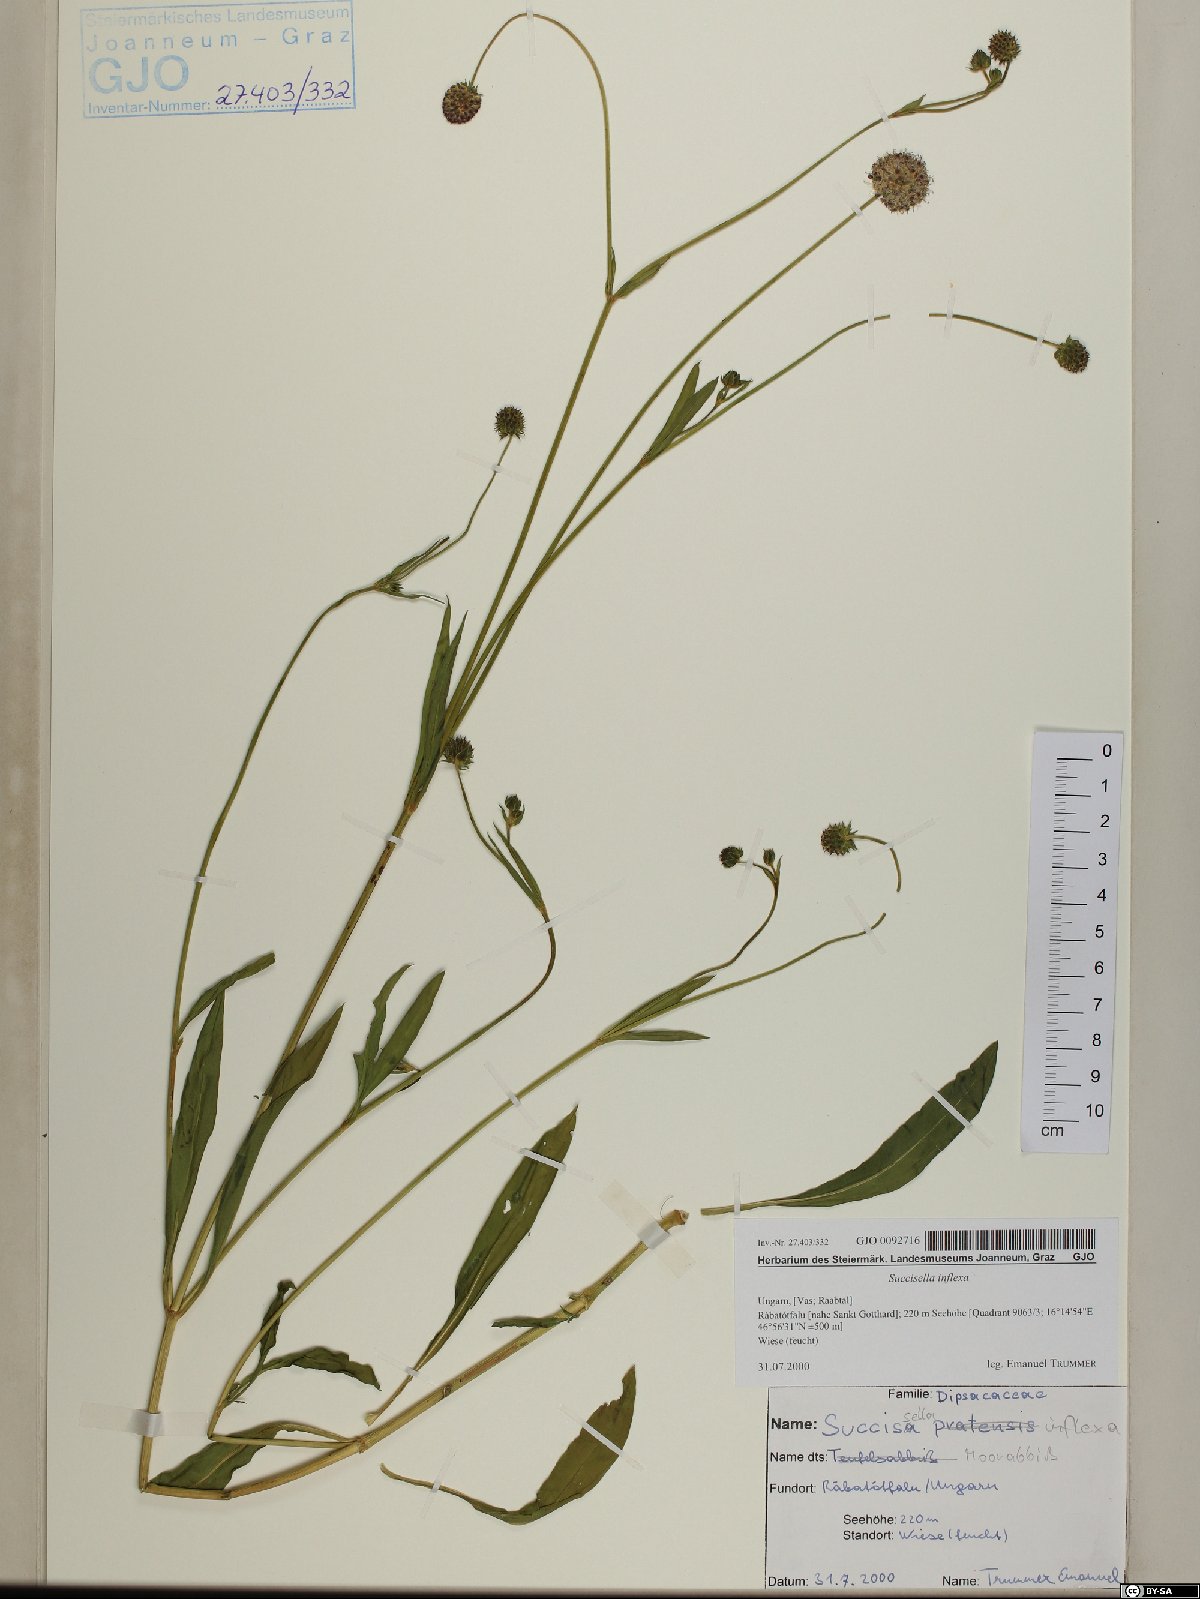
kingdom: Plantae
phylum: Tracheophyta
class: Magnoliopsida
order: Dipsacales
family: Caprifoliaceae
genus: Succisella
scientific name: Succisella inflexa
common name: Southern succisella
